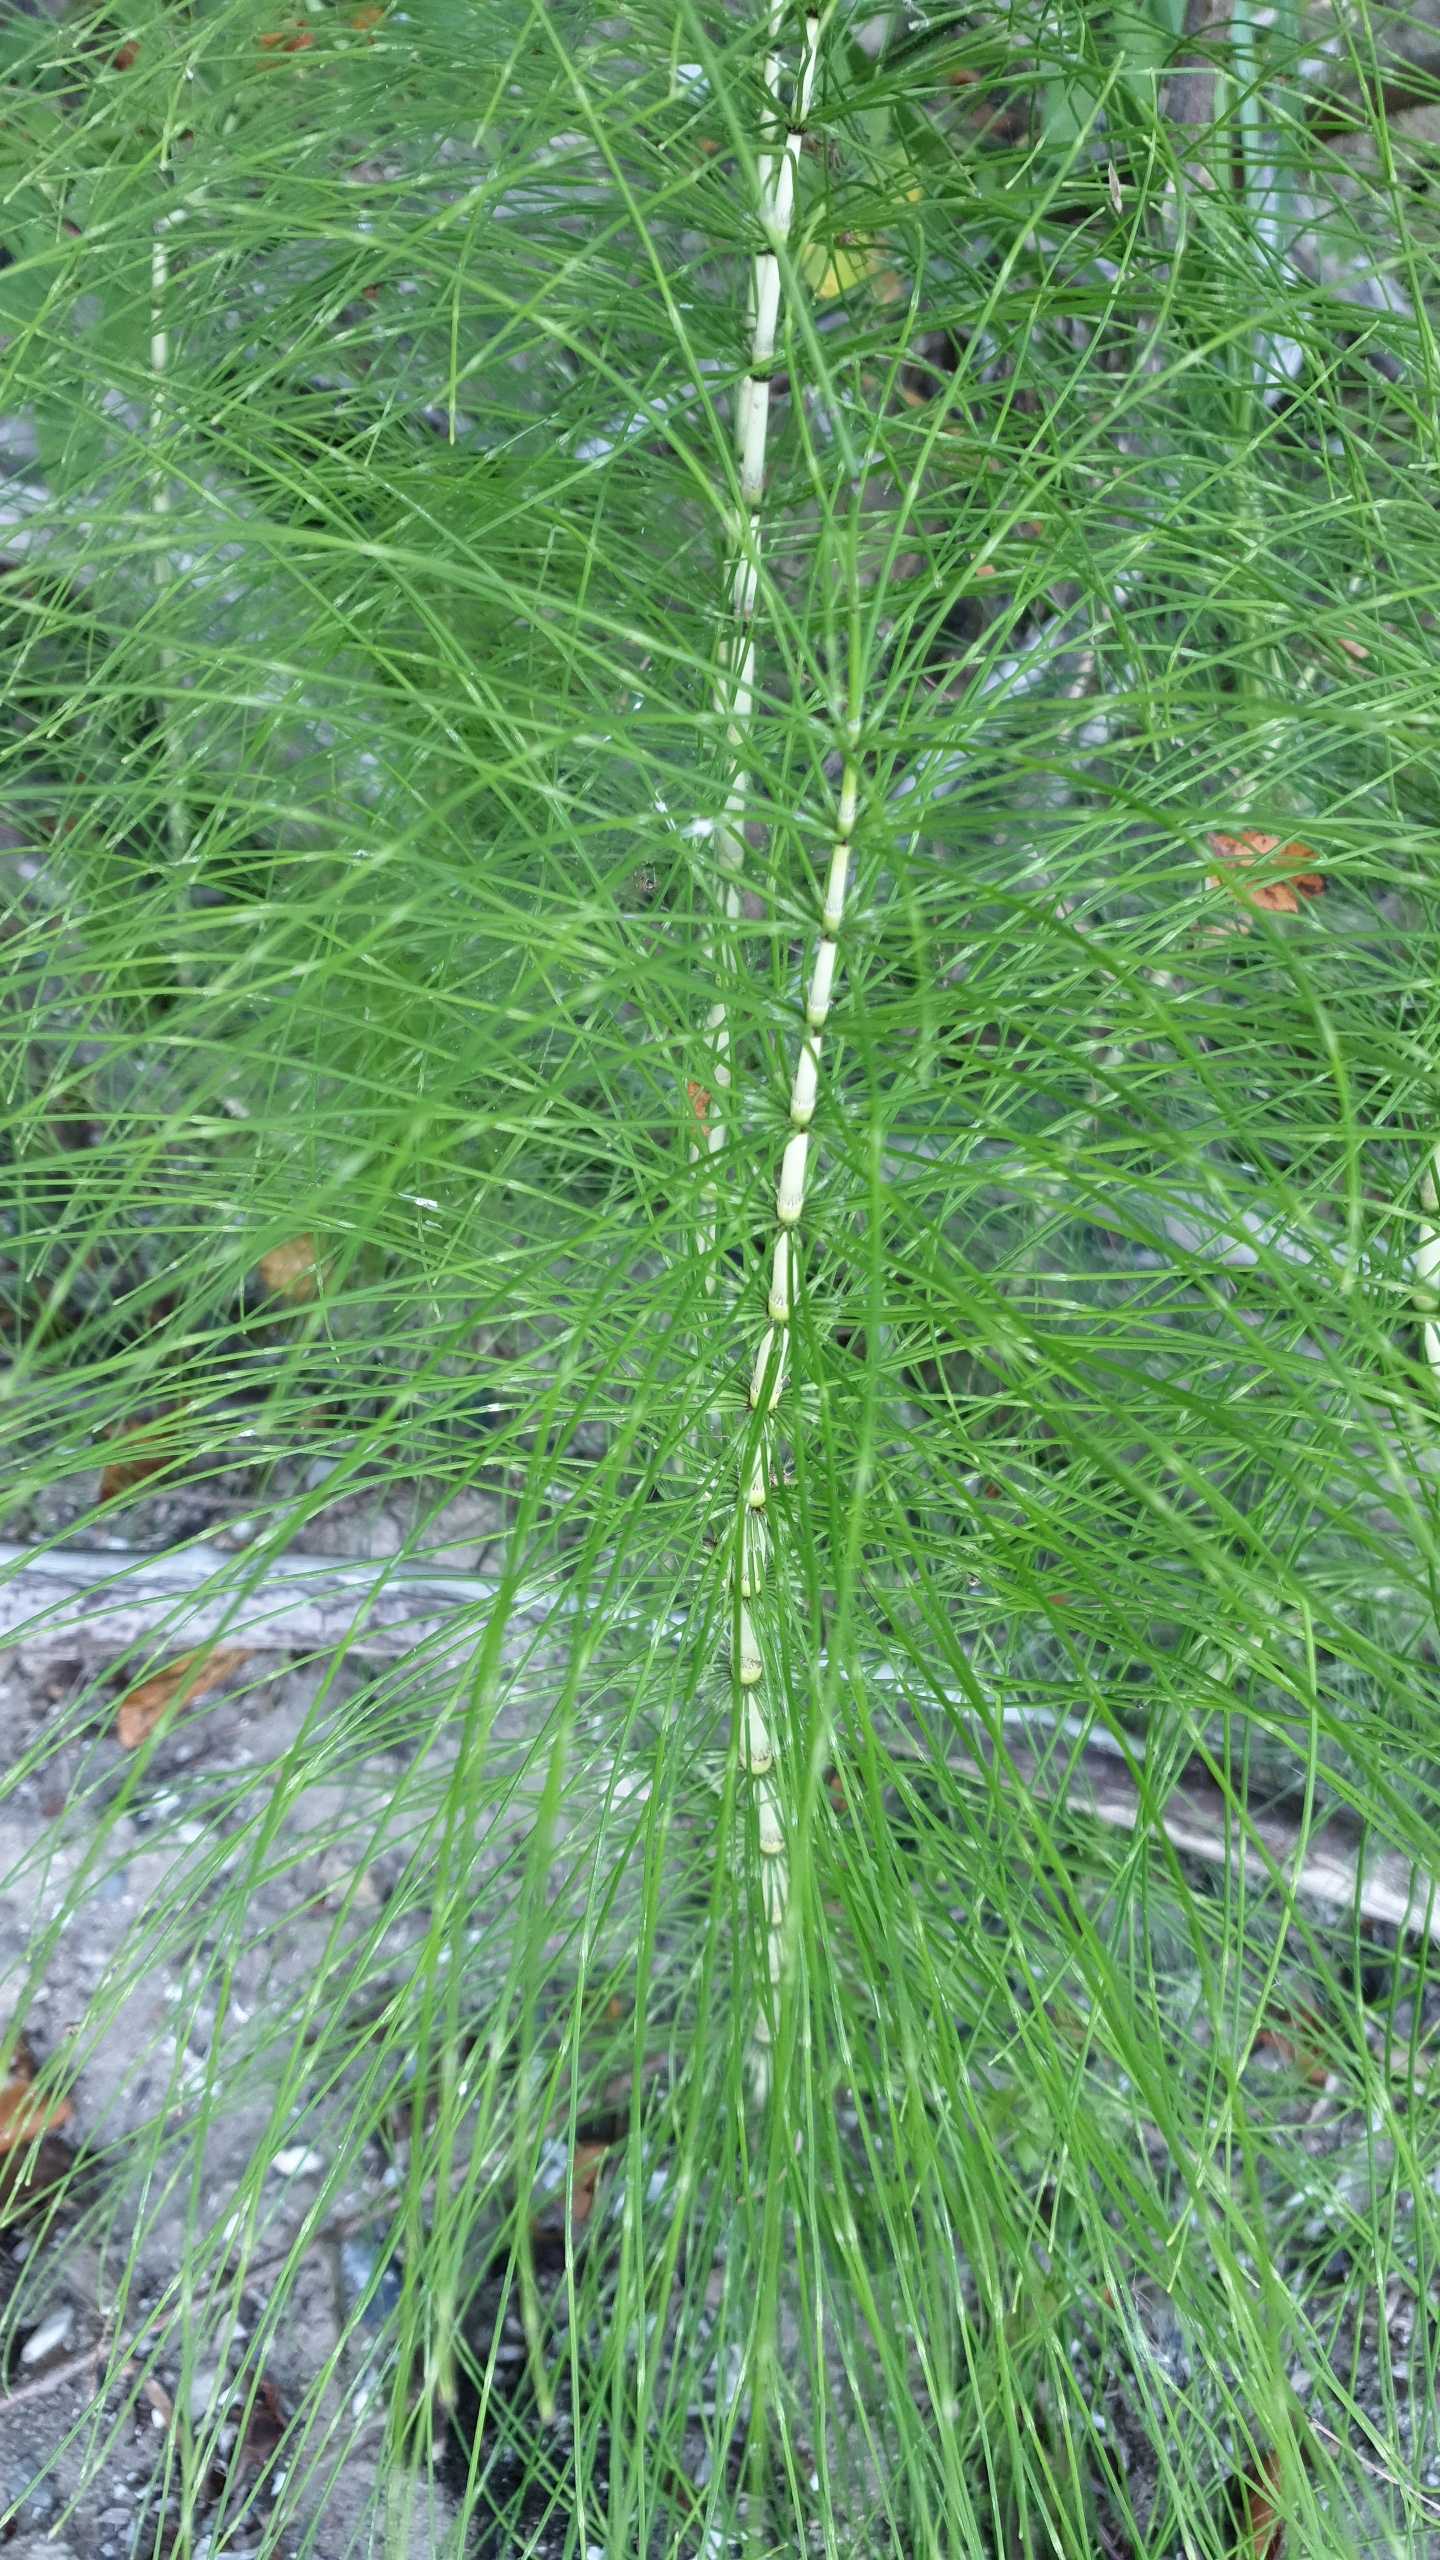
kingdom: Plantae
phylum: Tracheophyta
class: Polypodiopsida
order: Equisetales
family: Equisetaceae
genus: Equisetum
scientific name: Equisetum telmateia
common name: Elfenbens-padderok
